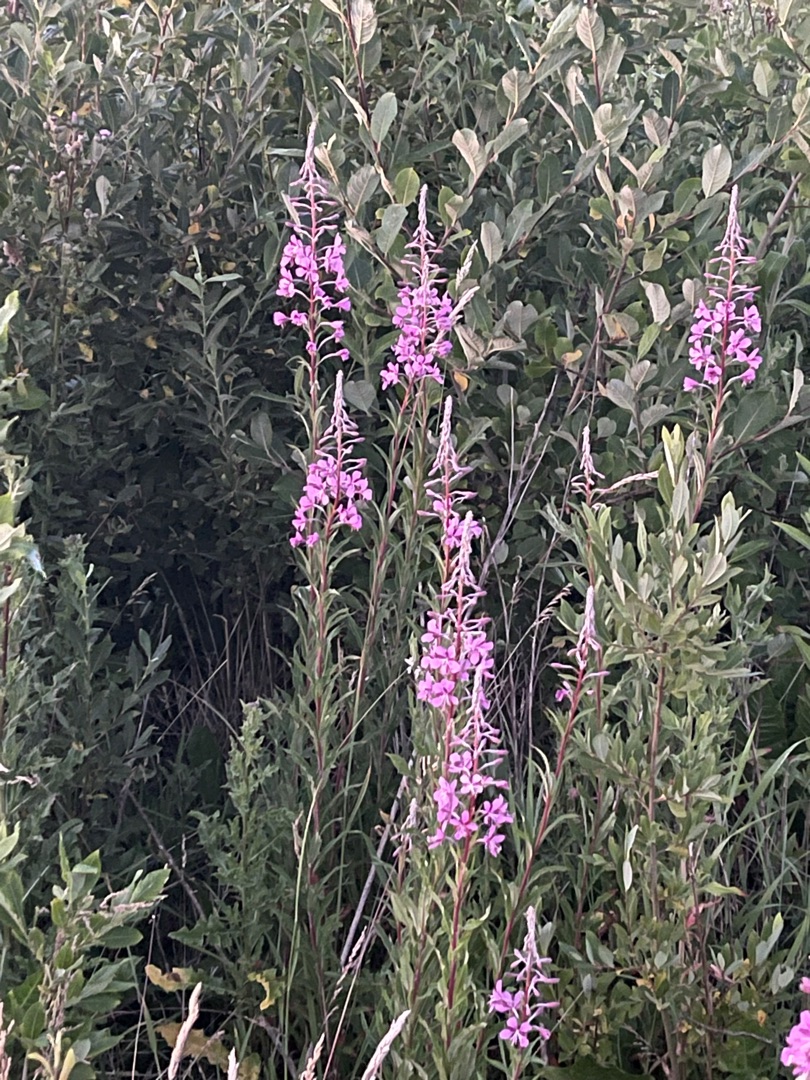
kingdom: Plantae
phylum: Tracheophyta
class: Magnoliopsida
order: Myrtales
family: Onagraceae
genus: Chamaenerion
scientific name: Chamaenerion angustifolium
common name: Gederams
